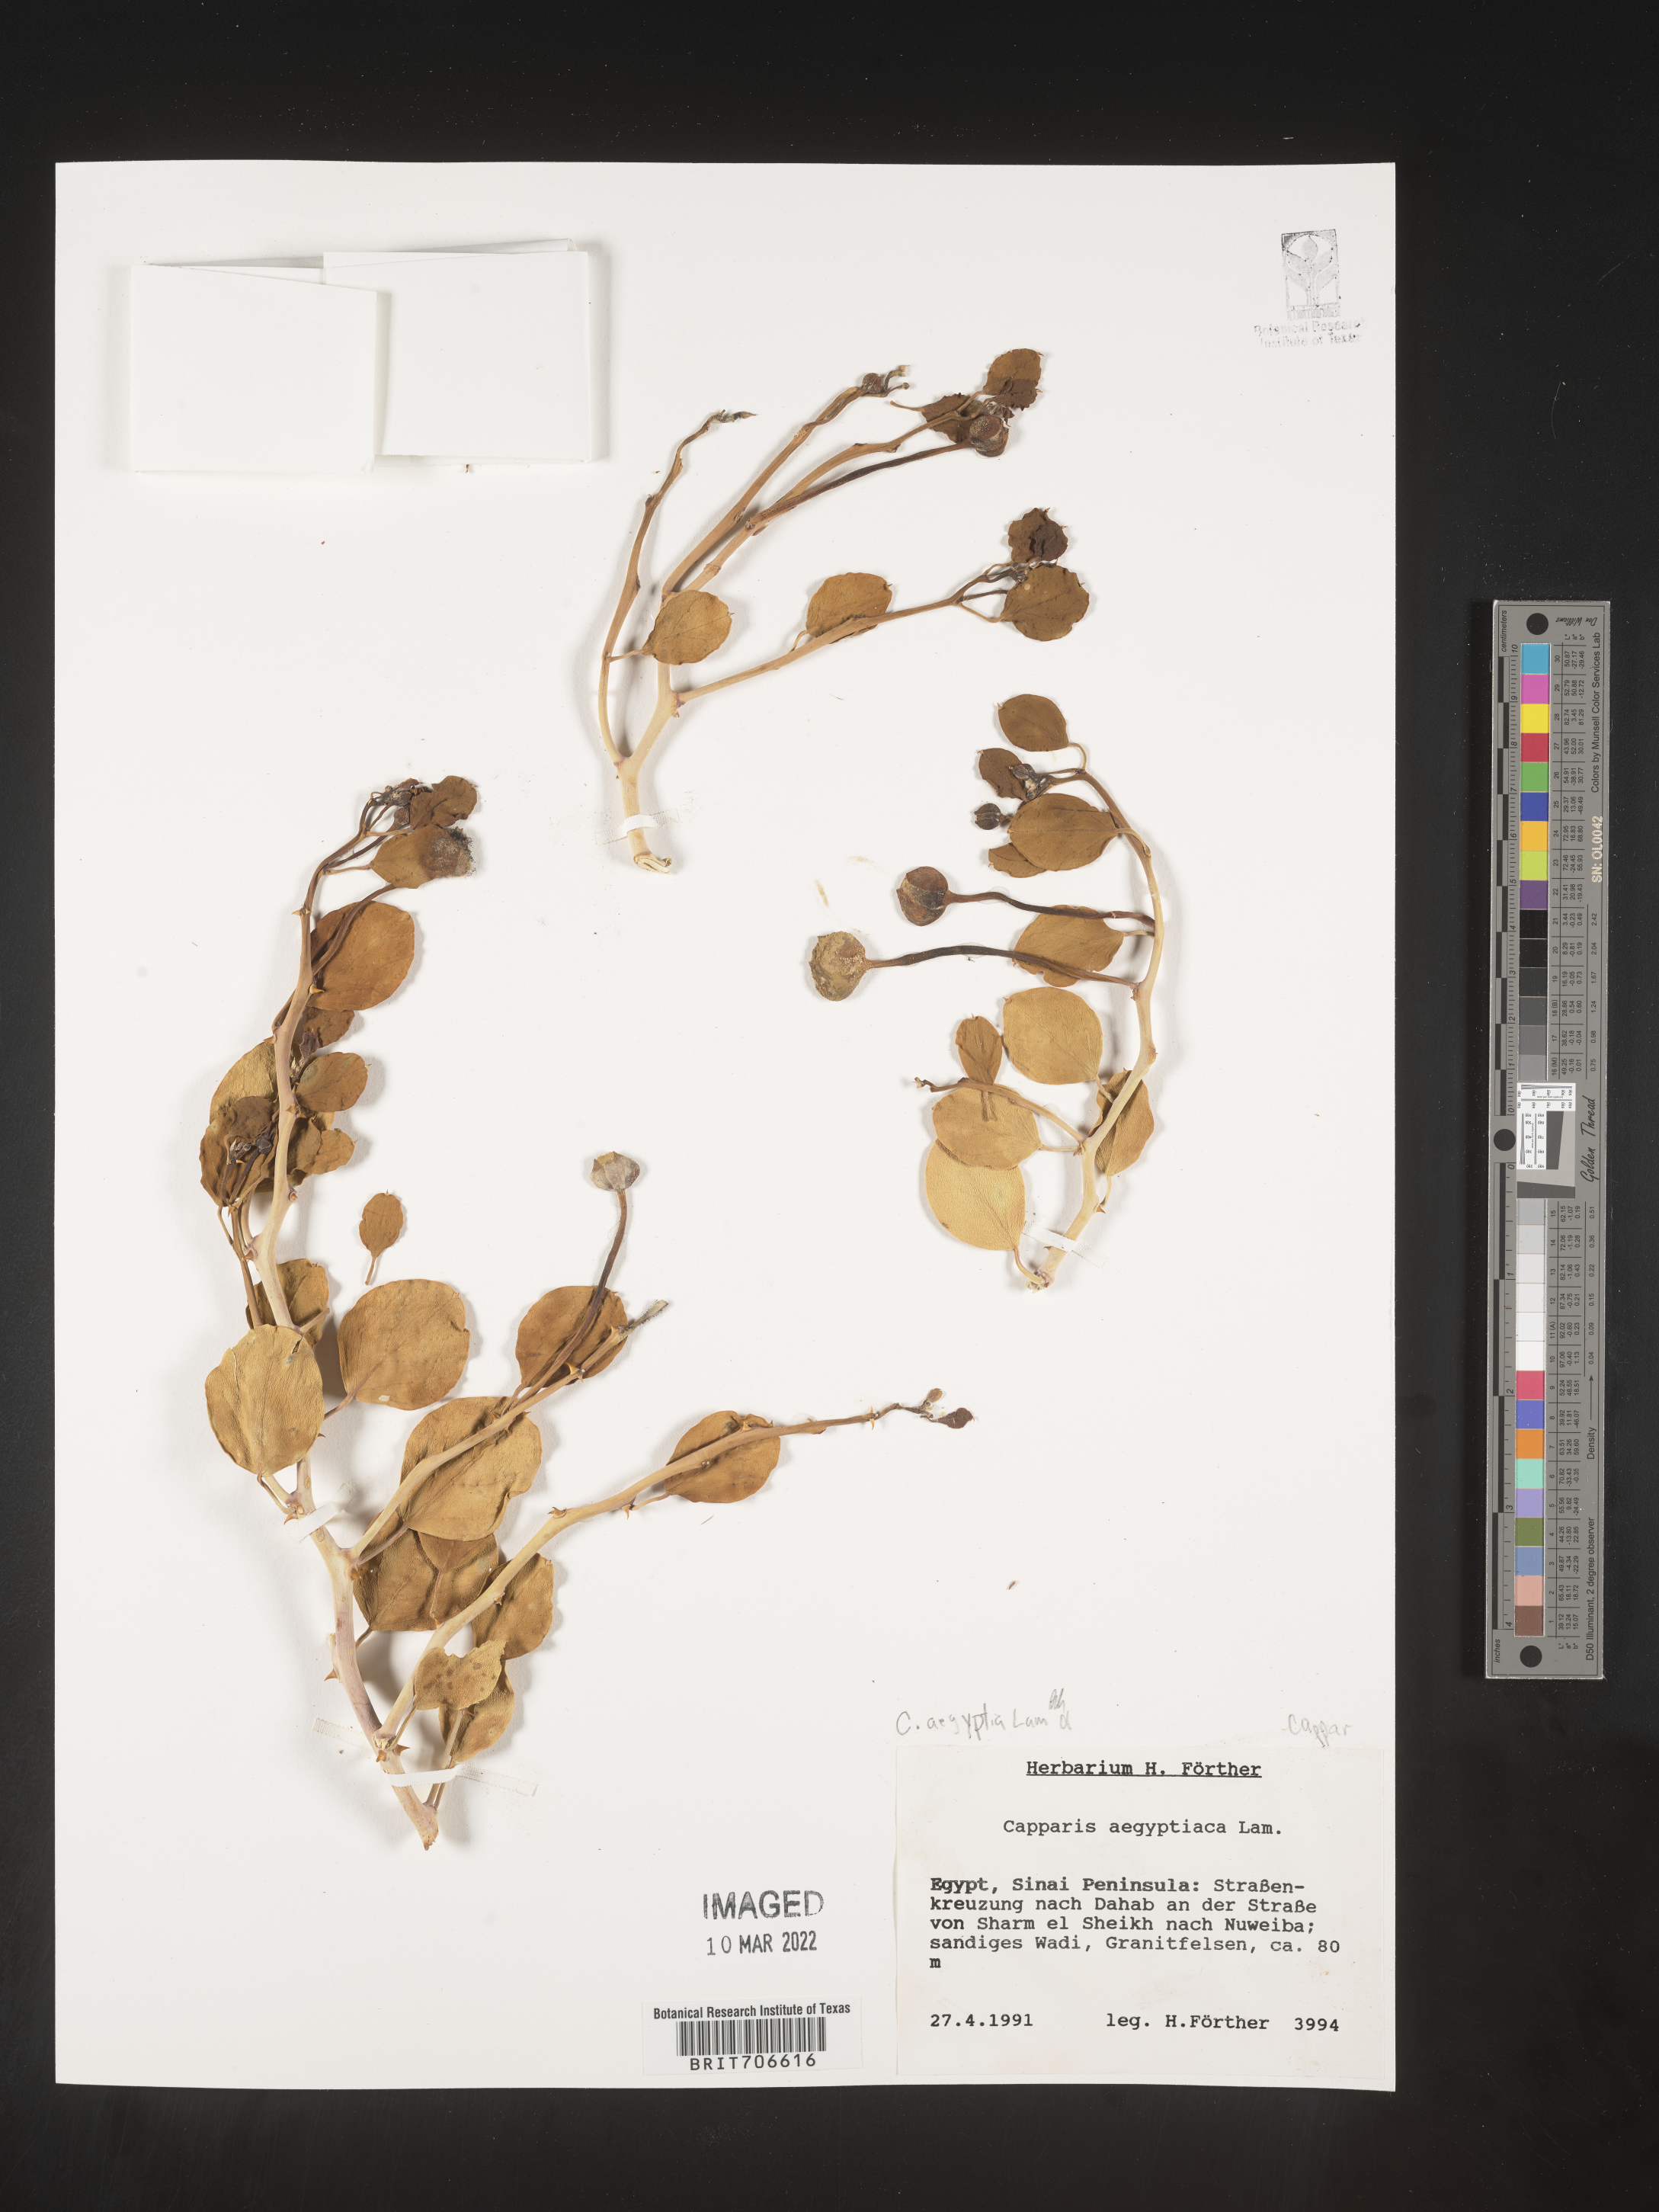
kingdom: Plantae
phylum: Tracheophyta
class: Magnoliopsida
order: Brassicales
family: Capparaceae
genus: Capparis
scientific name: Capparis
